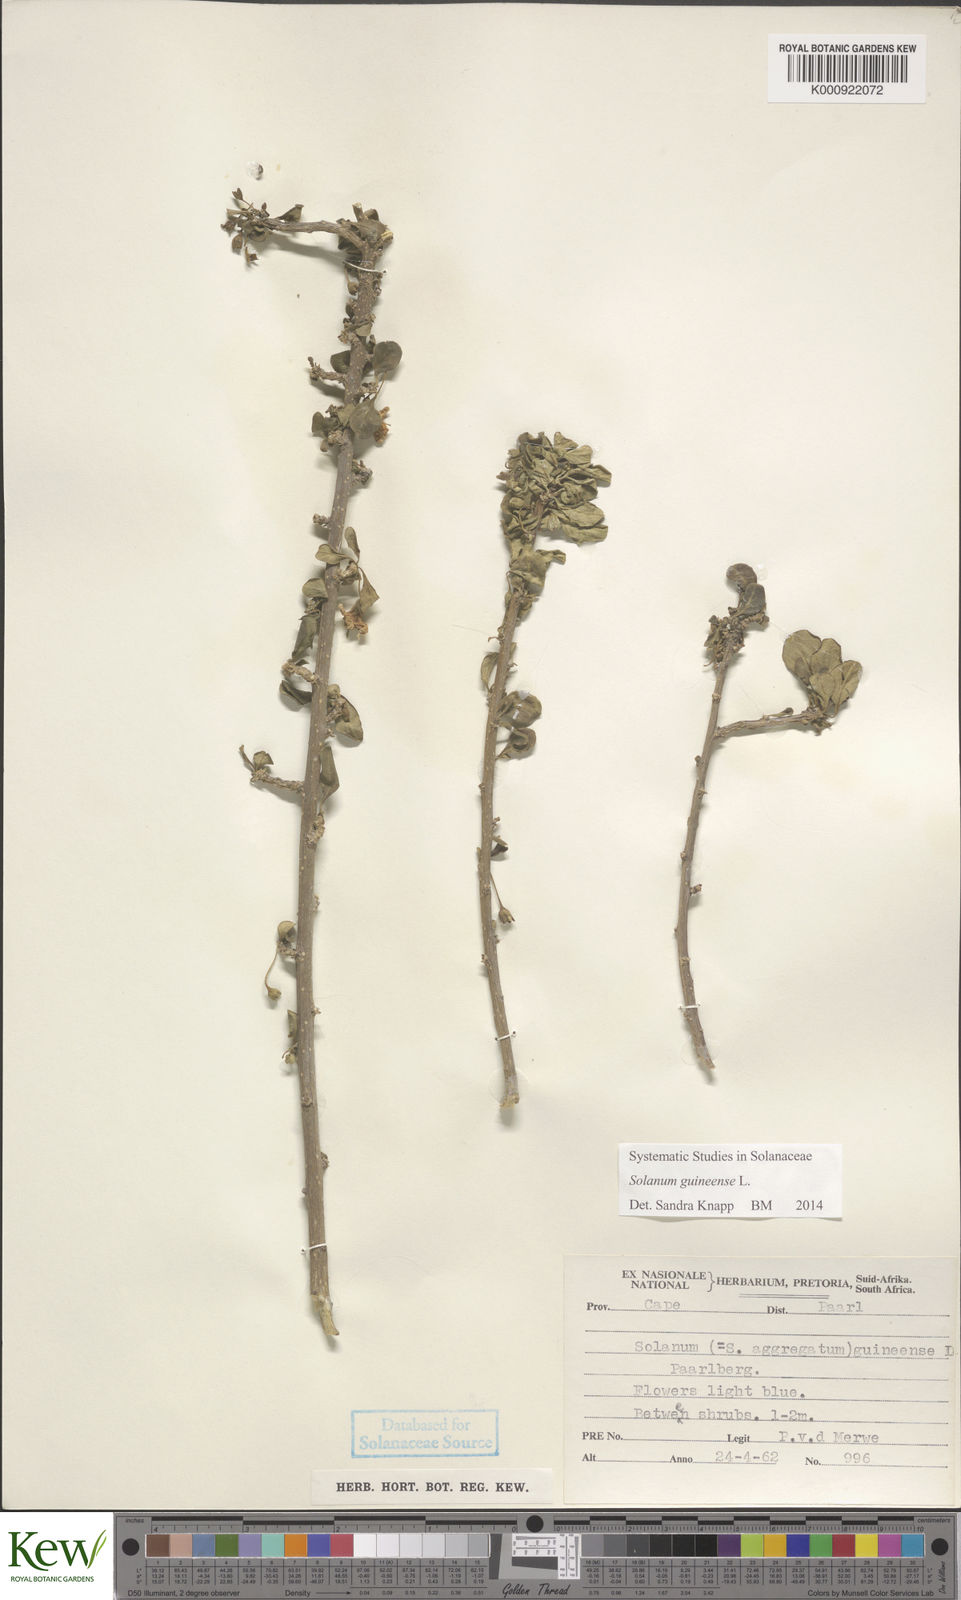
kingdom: Plantae
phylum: Tracheophyta
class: Magnoliopsida
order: Solanales
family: Solanaceae
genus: Solanum
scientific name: Solanum guineense
